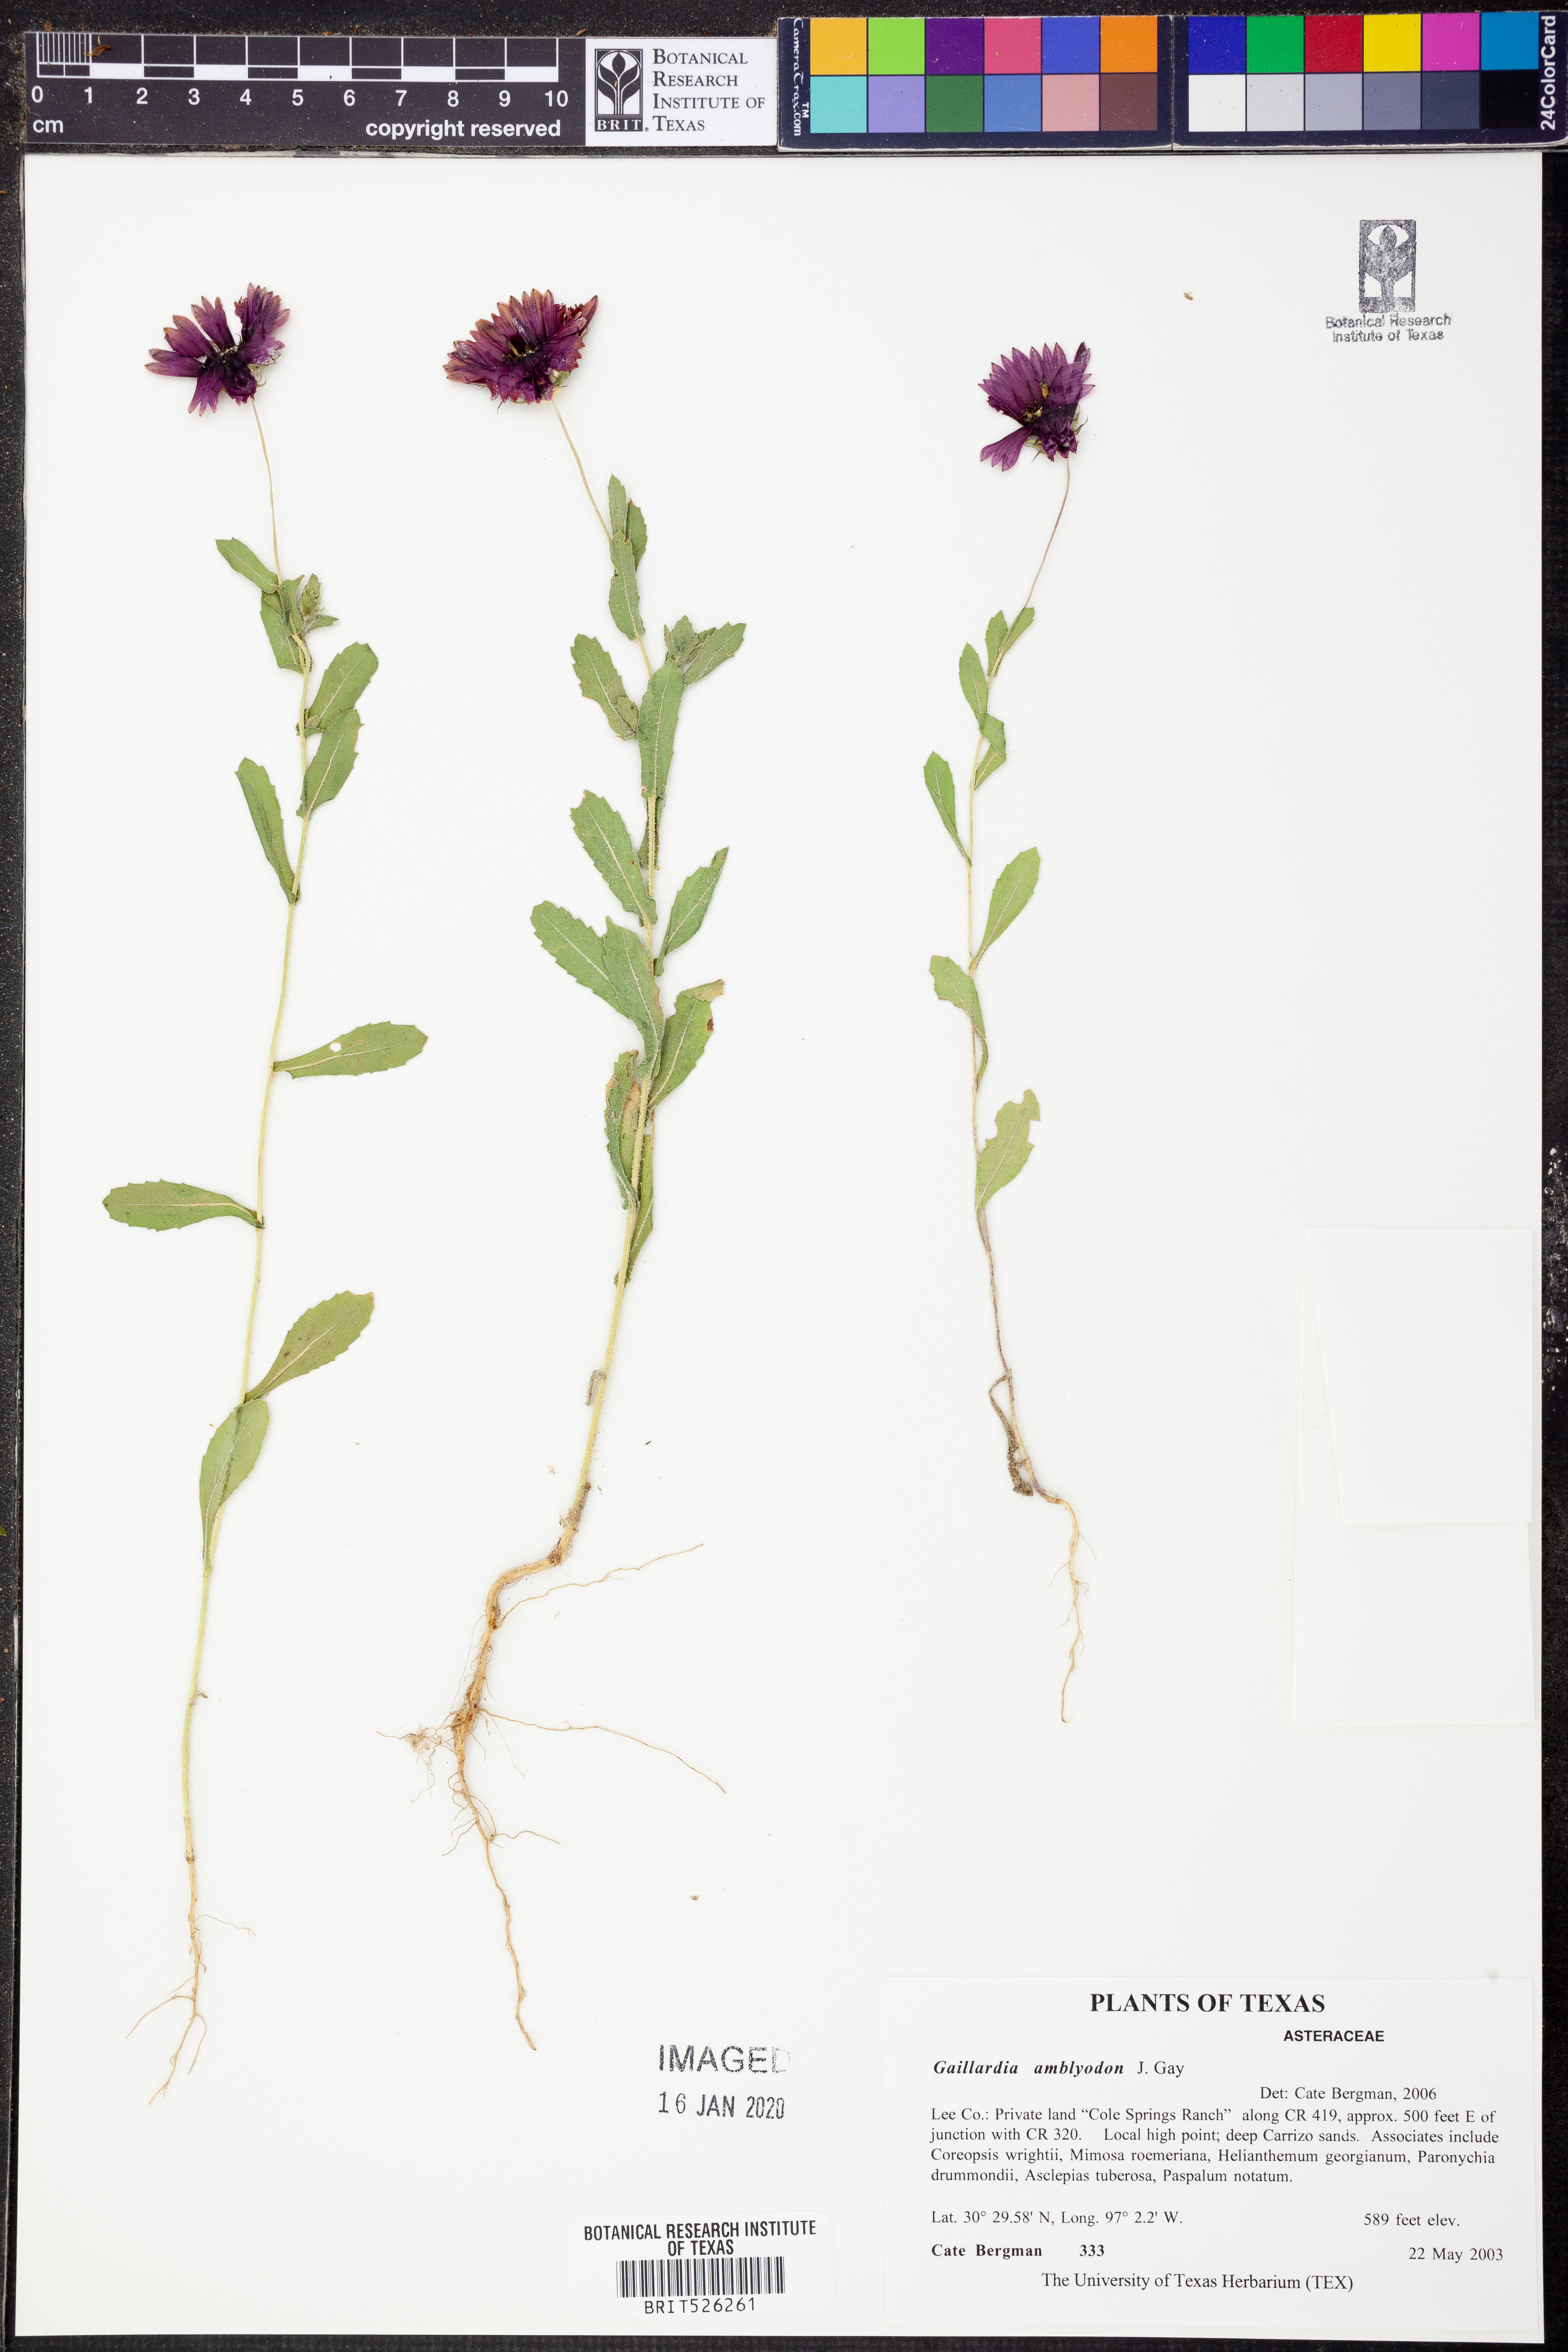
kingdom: Plantae
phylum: Tracheophyta
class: Magnoliopsida
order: Asterales
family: Asteraceae
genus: Gaillardia
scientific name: Gaillardia amblyodon
